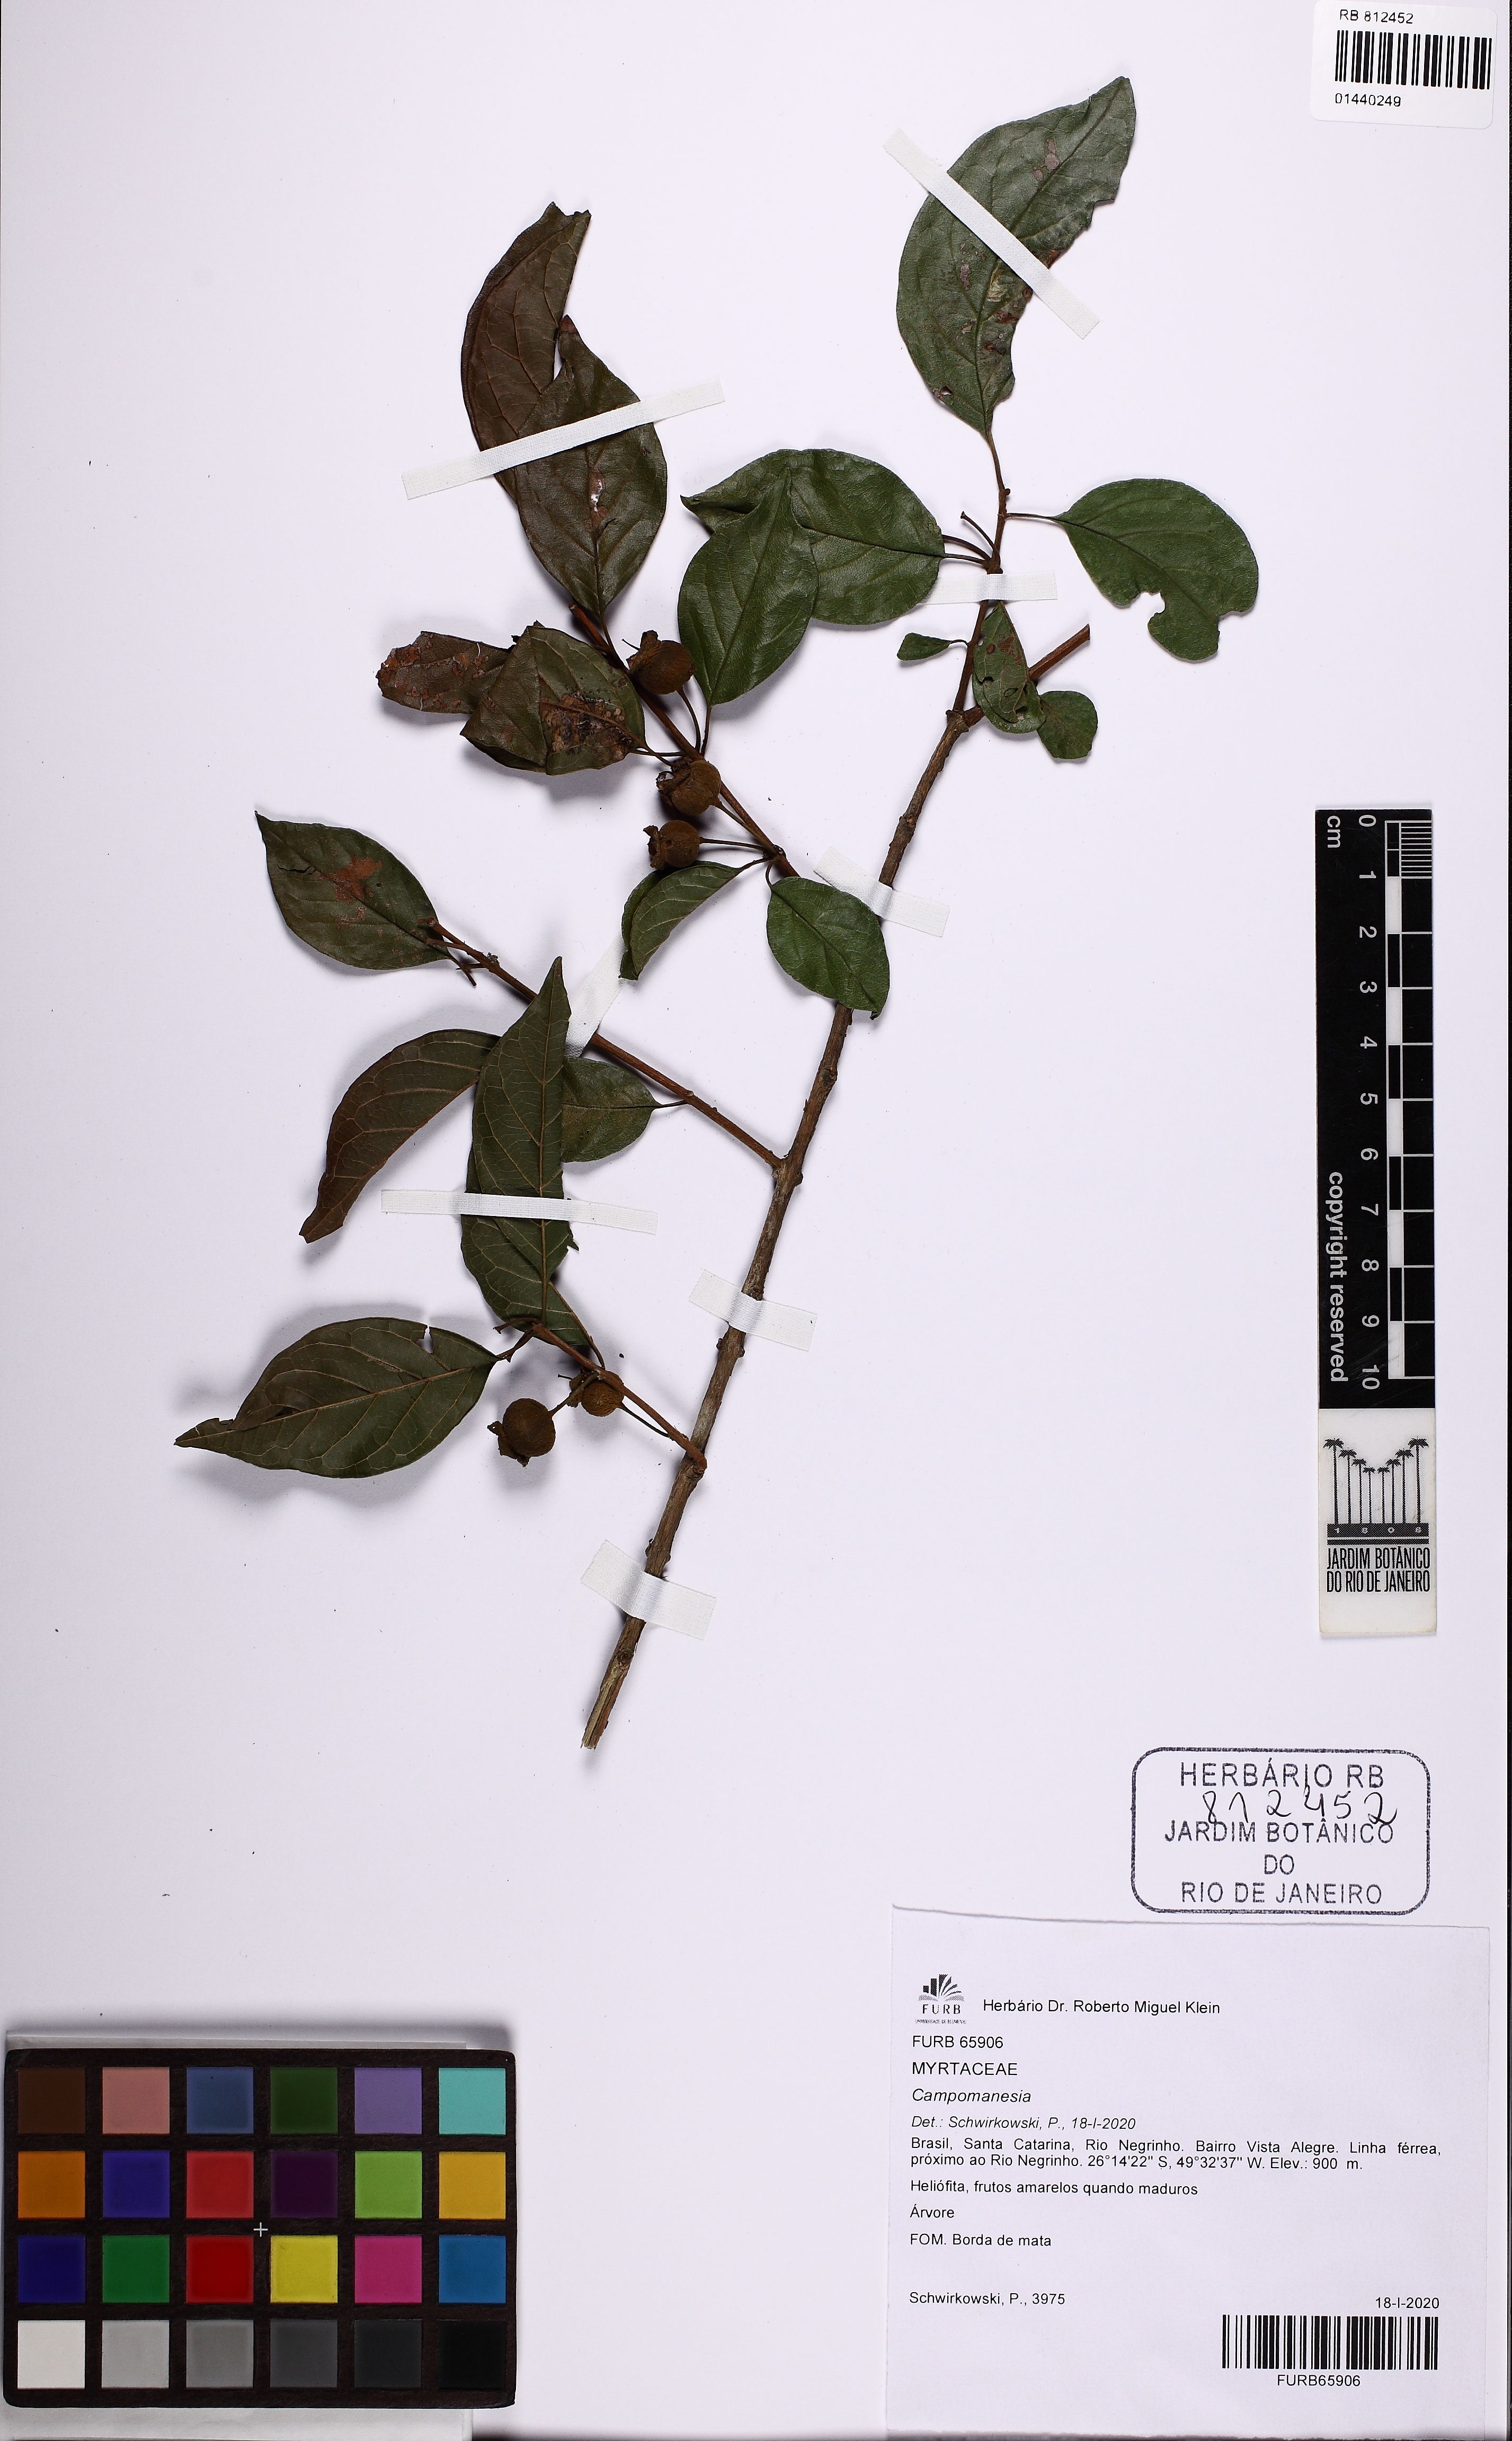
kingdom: Plantae
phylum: Tracheophyta
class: Magnoliopsida
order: Myrtales
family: Myrtaceae
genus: Campomanesia
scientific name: Campomanesia
